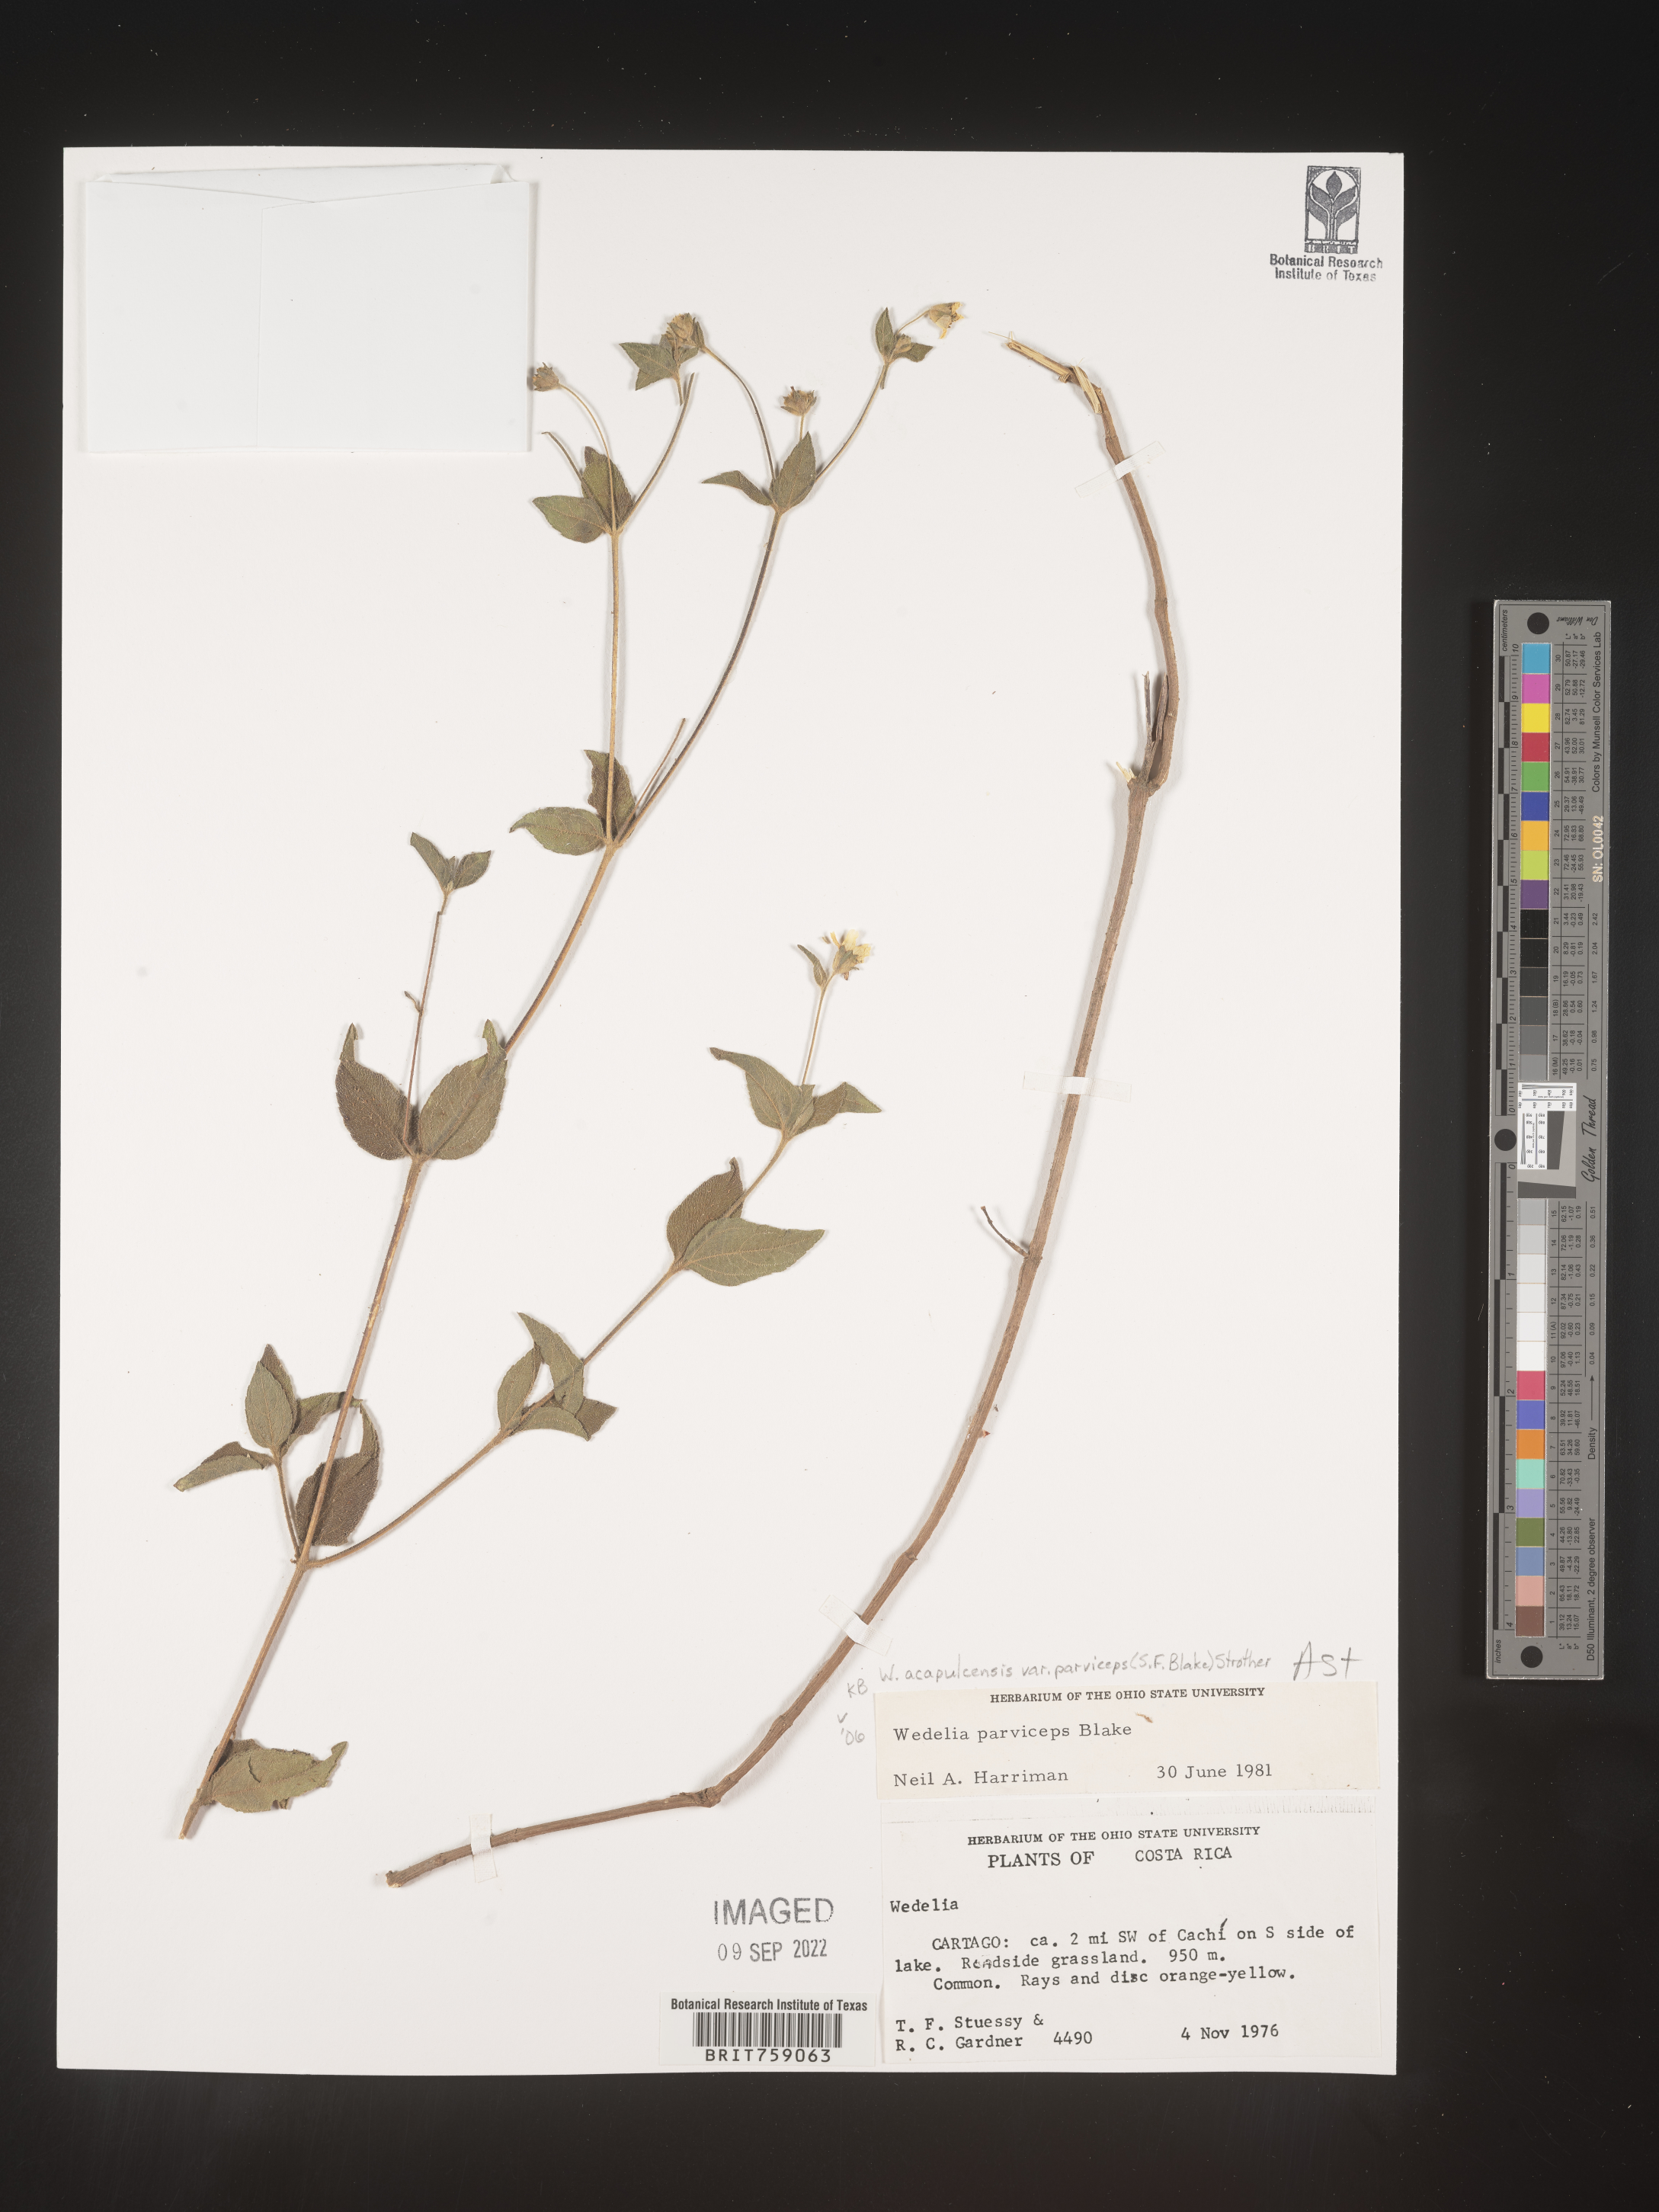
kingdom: Plantae
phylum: Tracheophyta
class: Magnoliopsida
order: Asterales
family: Asteraceae
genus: Wedelia
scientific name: Wedelia
